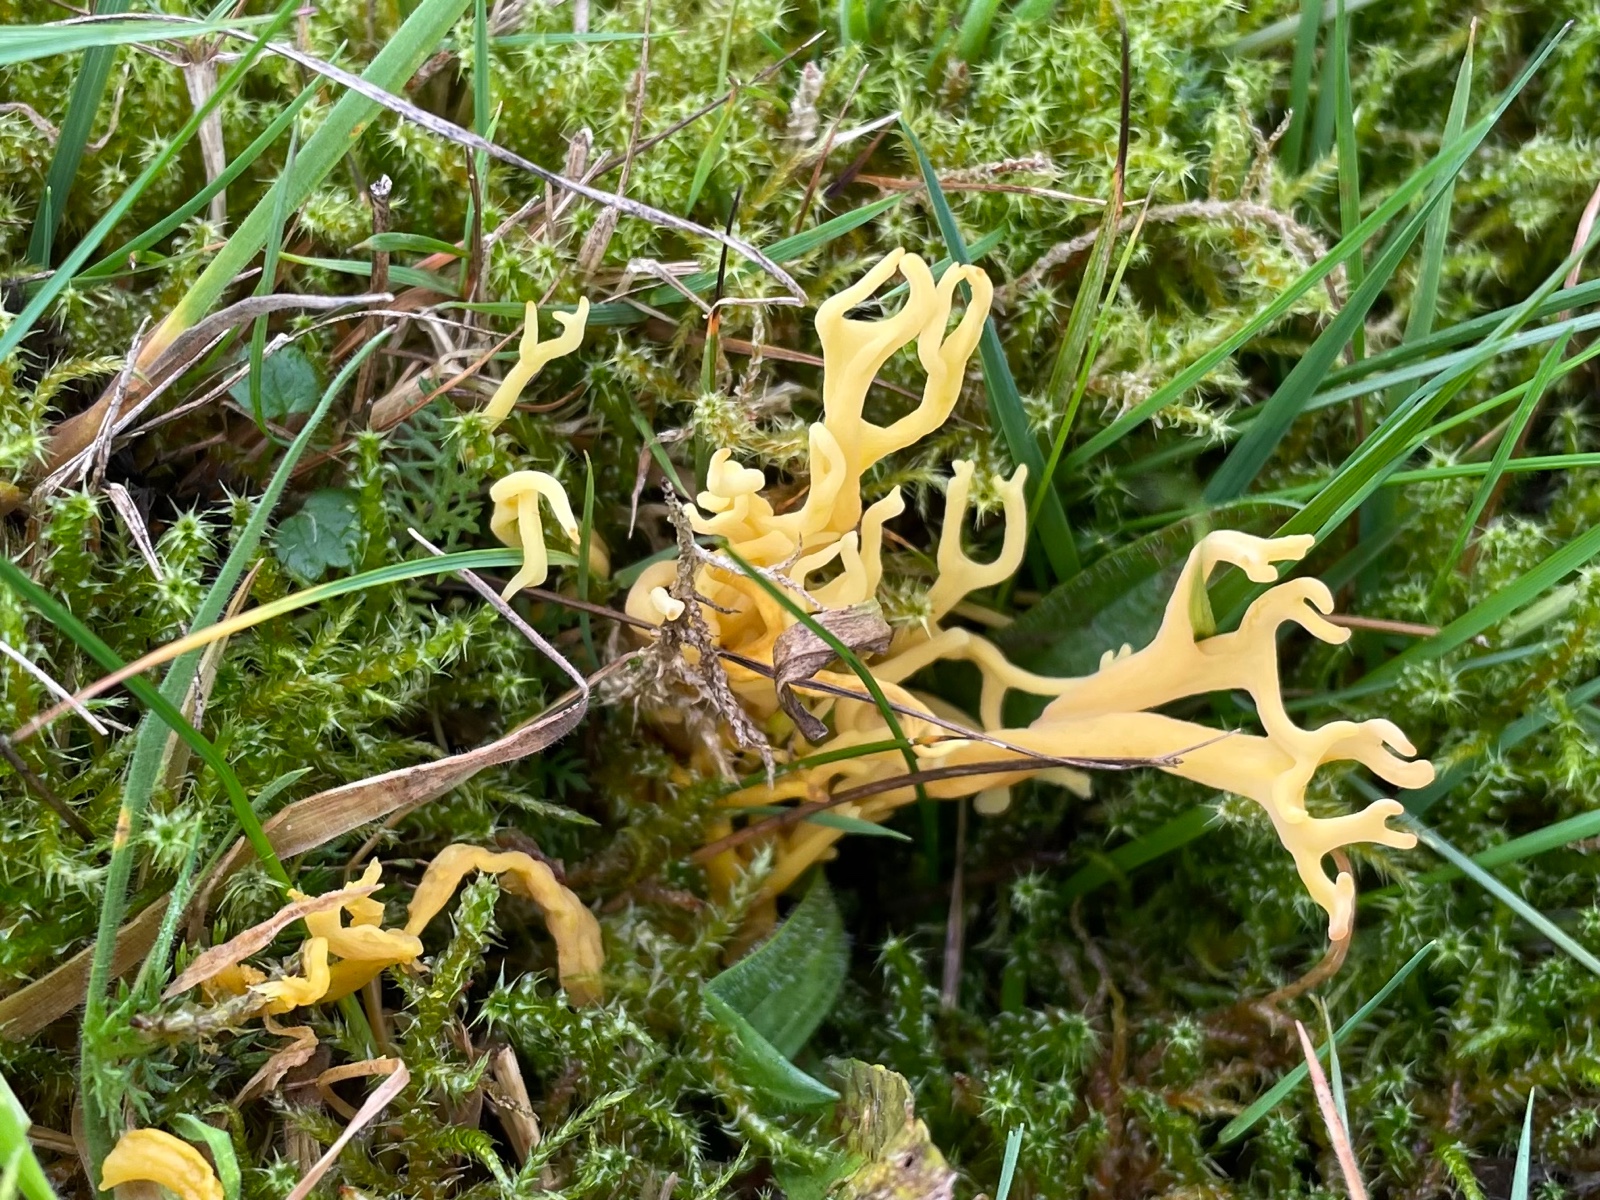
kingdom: Fungi
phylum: Basidiomycota
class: Agaricomycetes
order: Agaricales
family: Clavariaceae
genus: Clavulinopsis
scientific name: Clavulinopsis corniculata
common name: eng-køllesvamp
